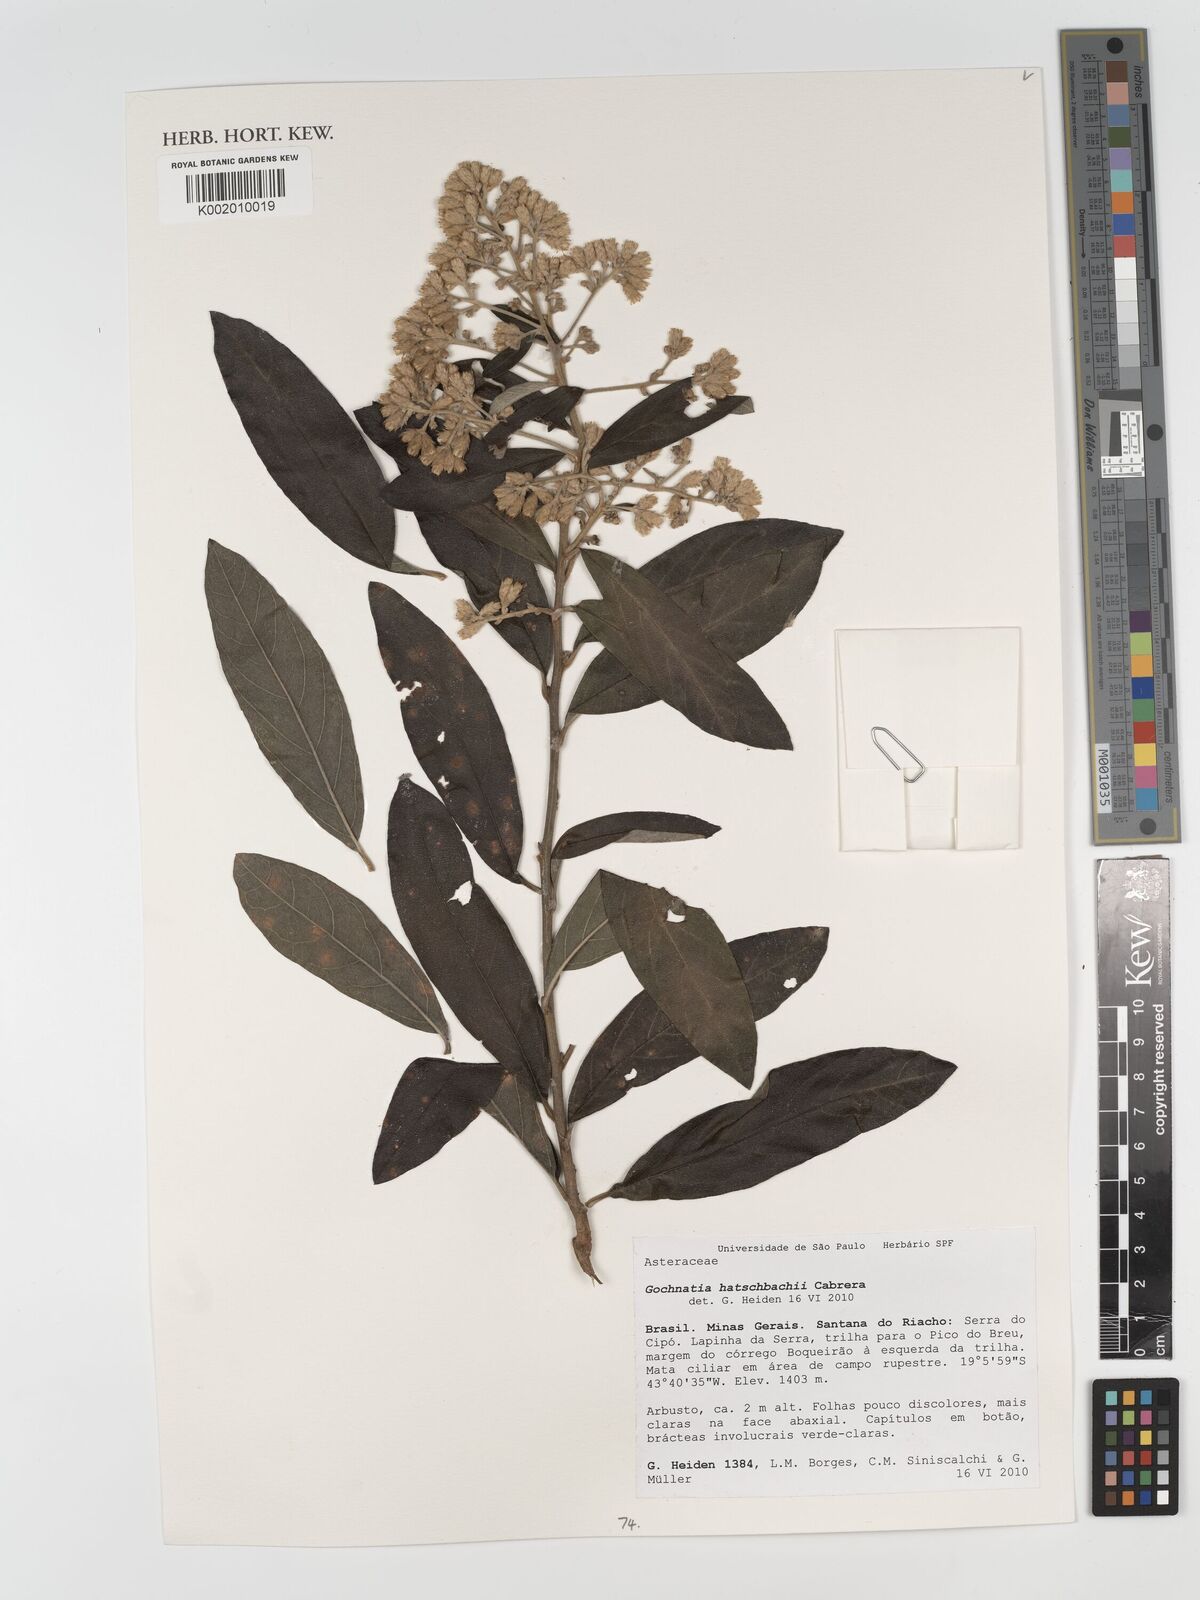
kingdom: Plantae
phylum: Tracheophyta
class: Magnoliopsida
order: Asterales
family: Asteraceae
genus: Moquiniastrum
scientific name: Moquiniastrum hatschbachii
